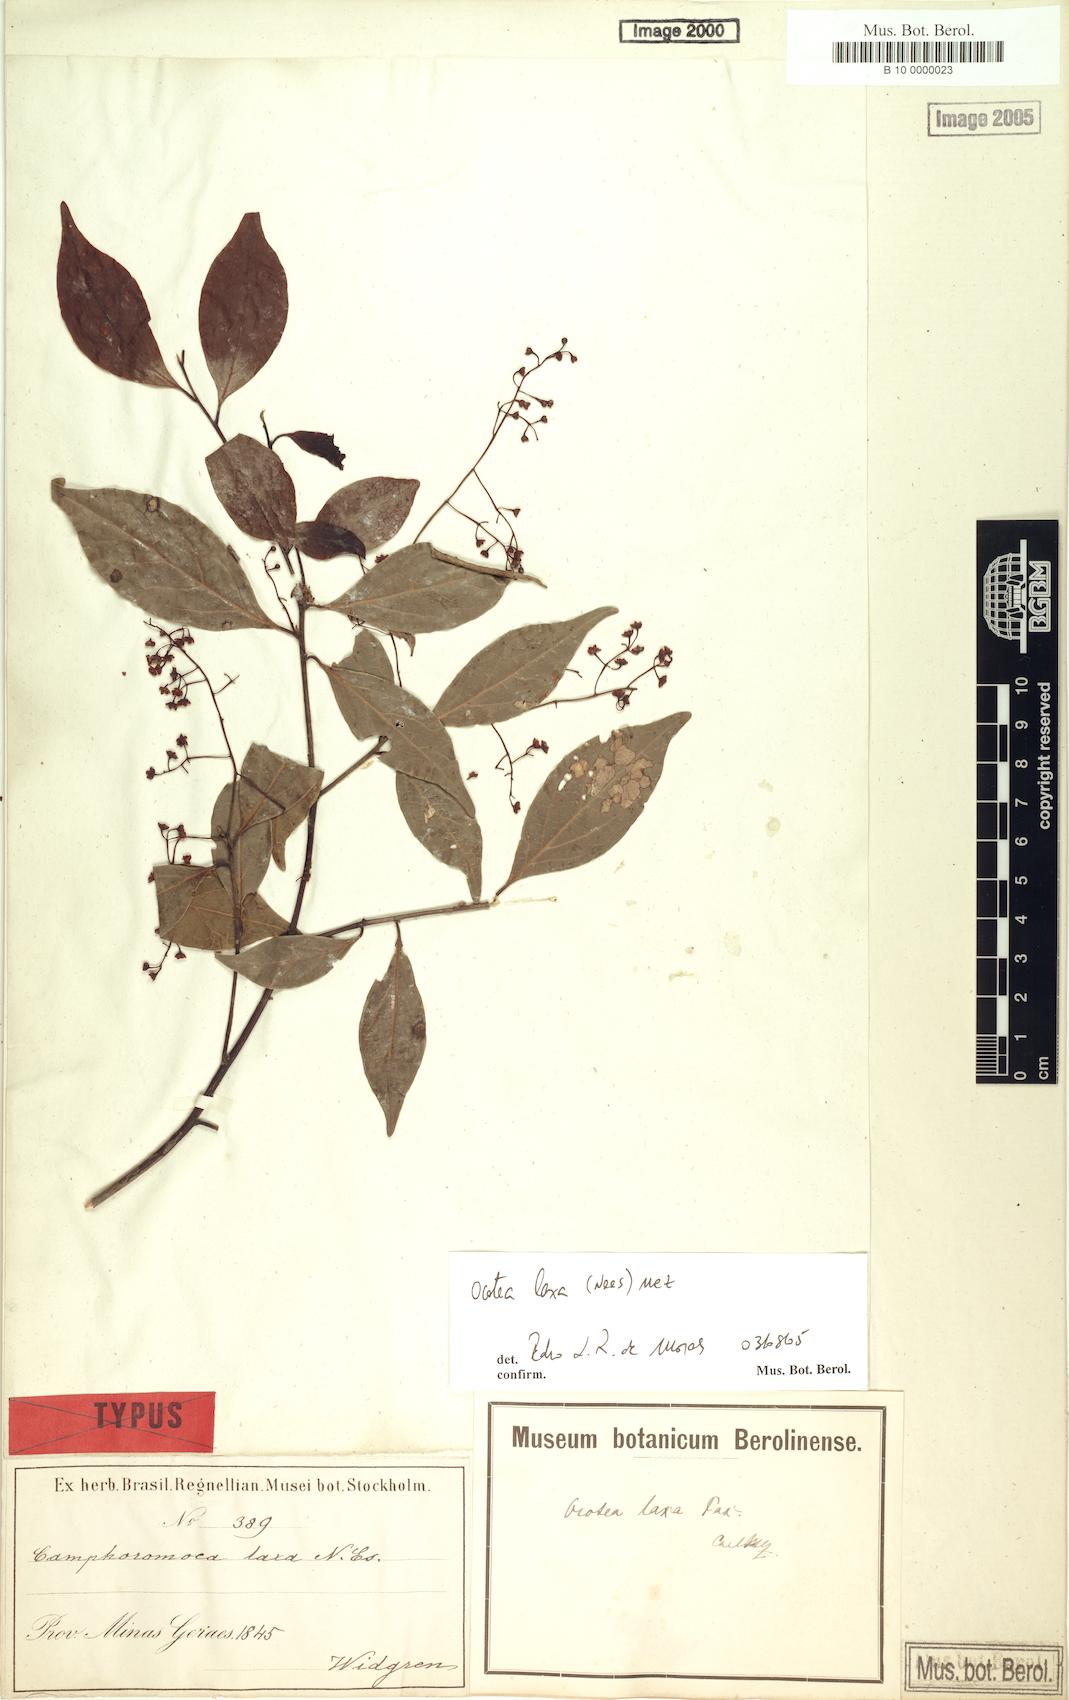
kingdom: Plantae
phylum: Tracheophyta
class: Magnoliopsida
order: Laurales
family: Lauraceae
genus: Ocotea
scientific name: Ocotea laxa
